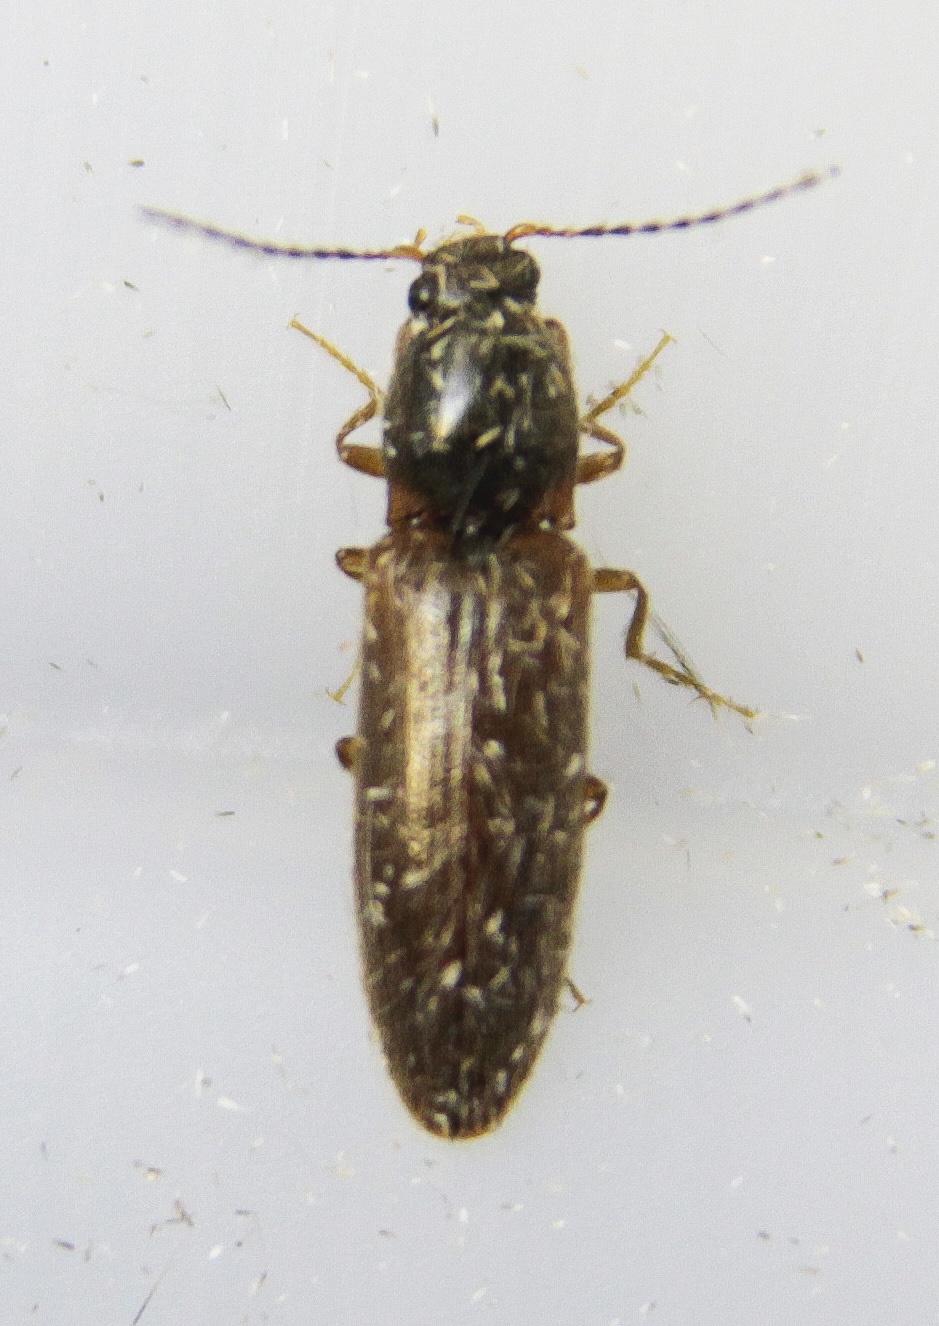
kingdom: Animalia
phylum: Arthropoda
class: Insecta
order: Coleoptera
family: Elateridae
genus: Athous
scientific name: Athous subfuscus
